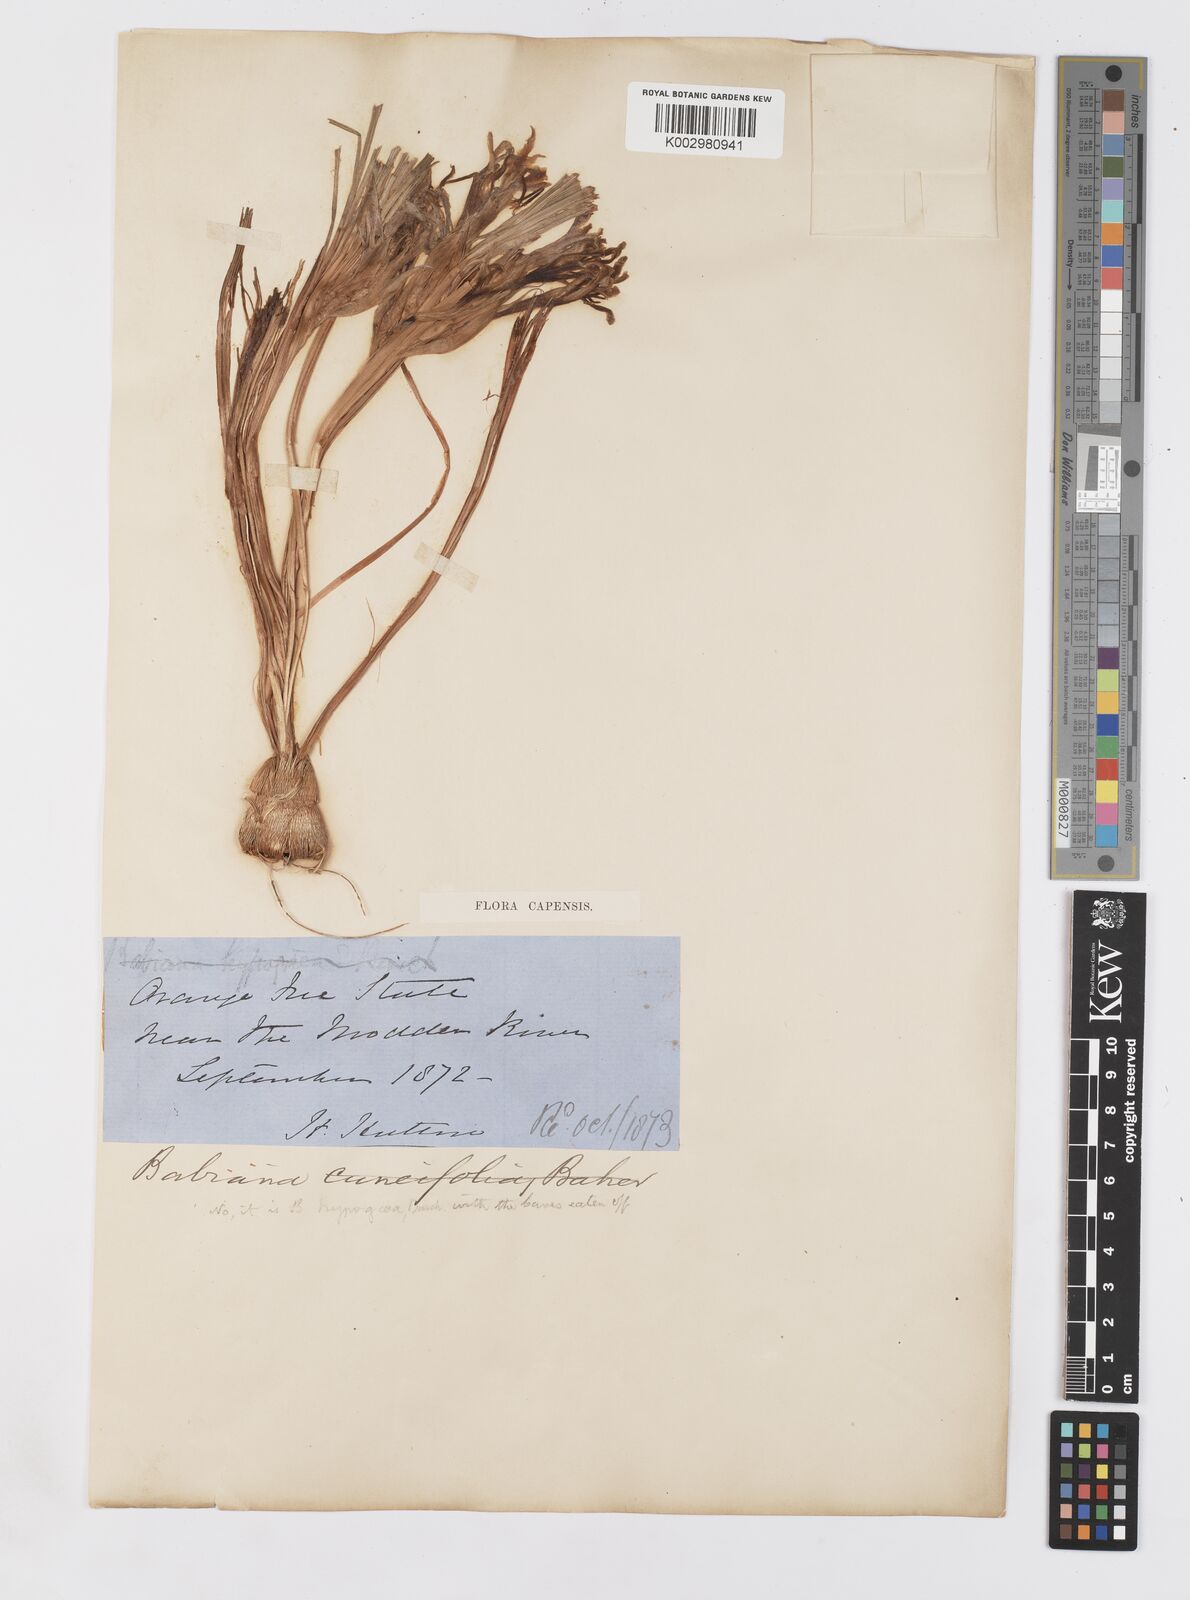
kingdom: Plantae
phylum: Tracheophyta
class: Liliopsida
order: Asparagales
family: Iridaceae
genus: Babiana
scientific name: Babiana bainesii
